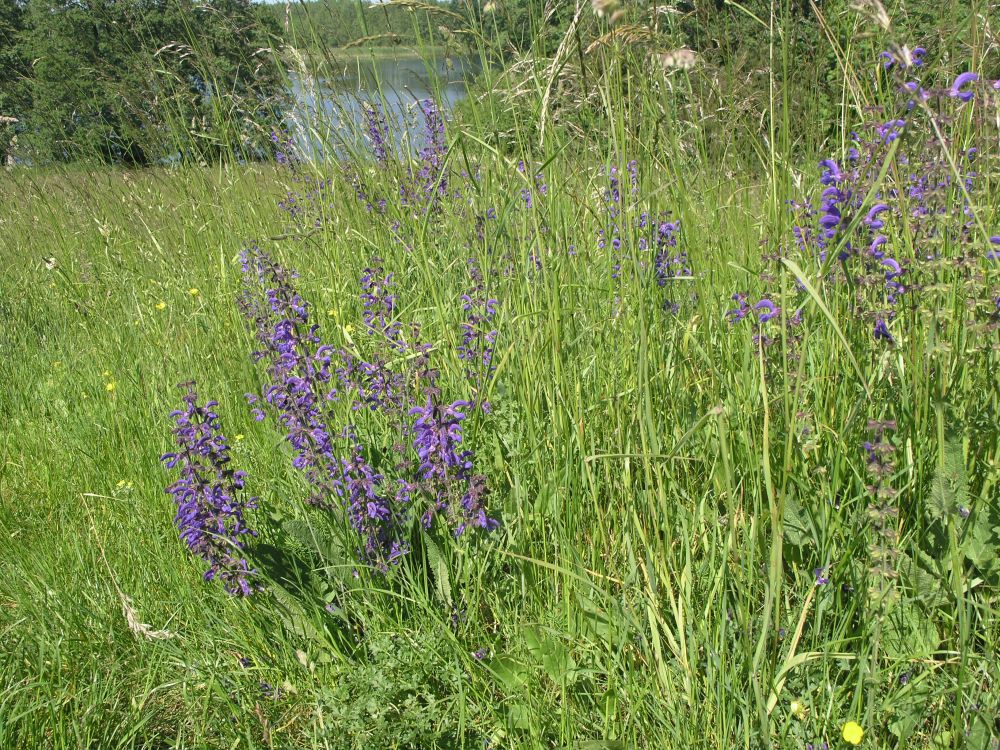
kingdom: Plantae
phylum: Tracheophyta
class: Magnoliopsida
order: Lamiales
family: Lamiaceae
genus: Salvia
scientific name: Salvia pratensis
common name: Meadow sage
